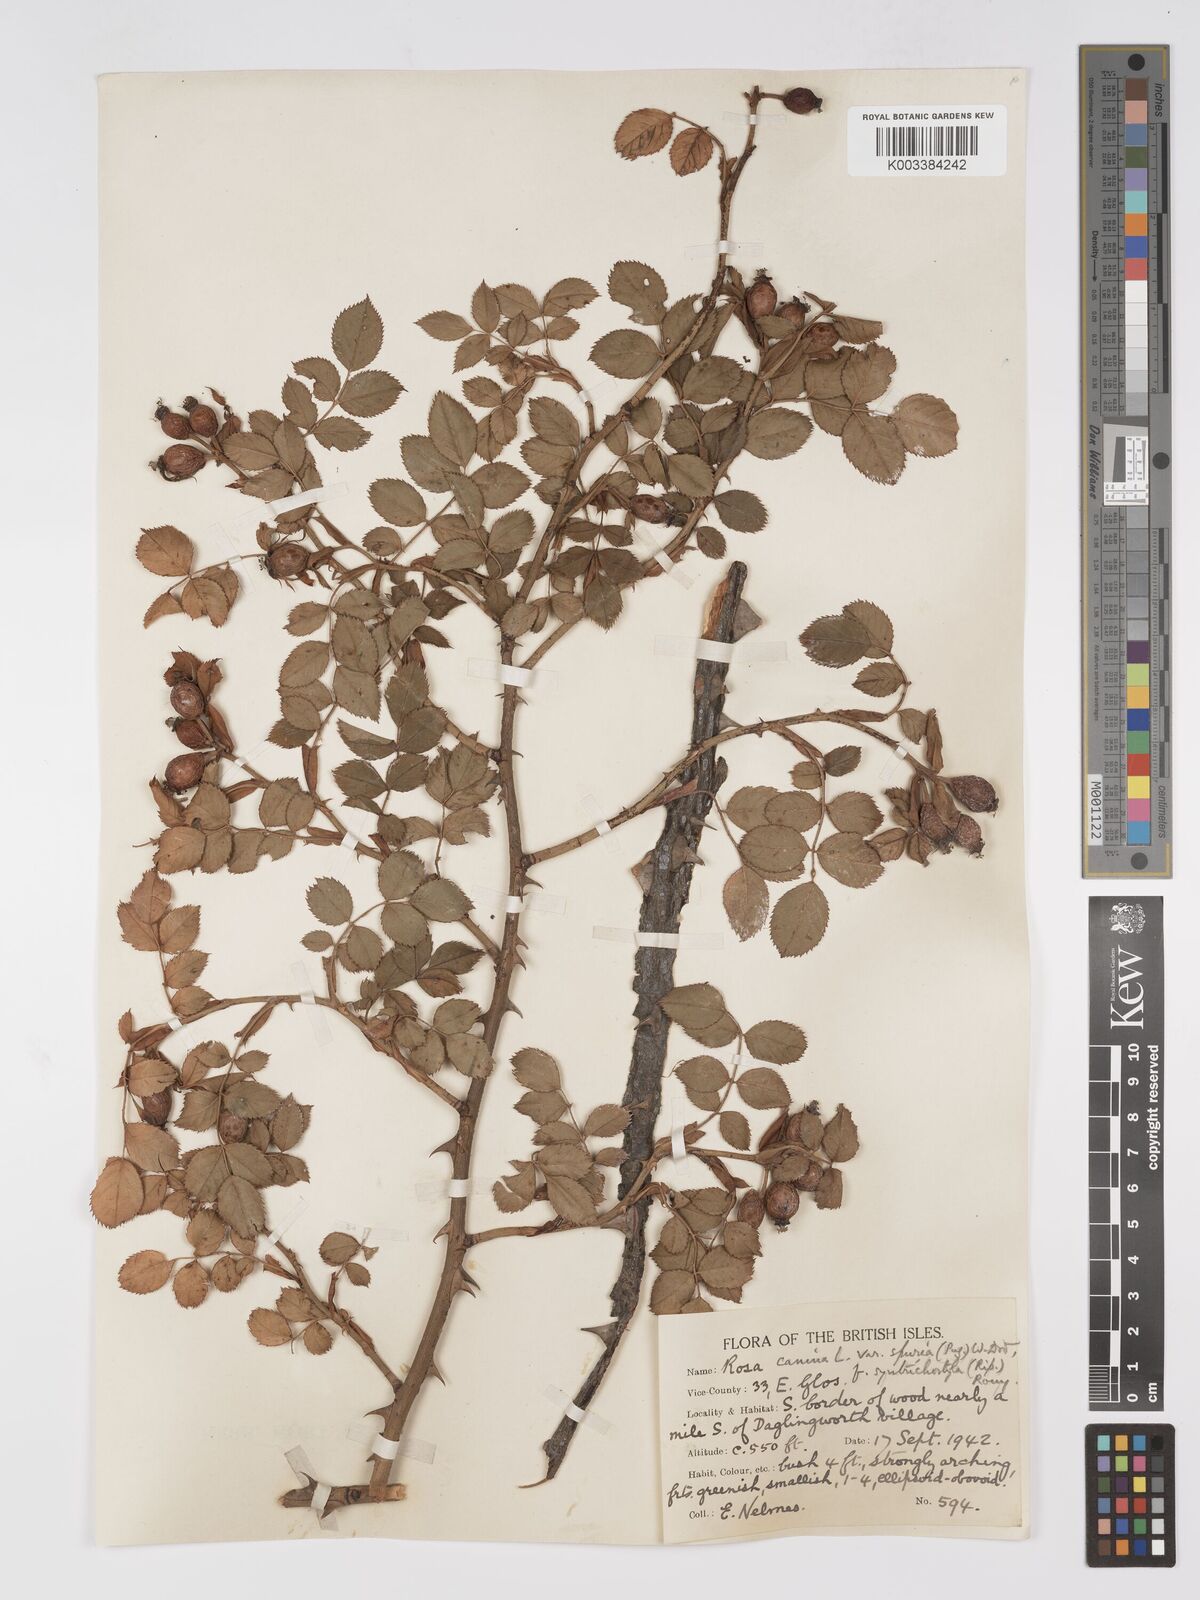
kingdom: Plantae
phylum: Tracheophyta
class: Magnoliopsida
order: Rosales
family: Rosaceae
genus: Rosa
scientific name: Rosa canina
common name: Dog rose
